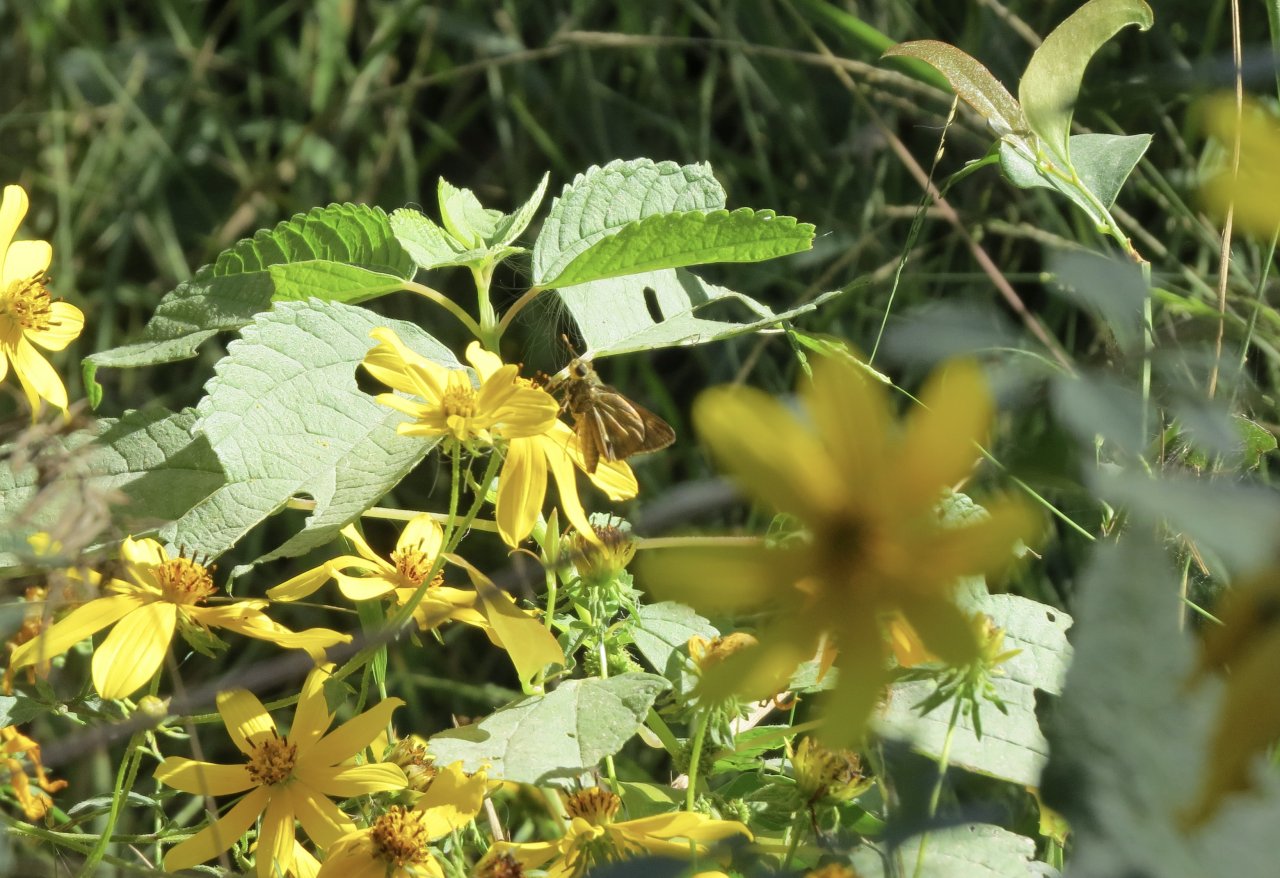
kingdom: Animalia
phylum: Arthropoda
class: Insecta
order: Lepidoptera
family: Hesperiidae
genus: Problema
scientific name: Problema byssus
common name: Byssus Skipper
